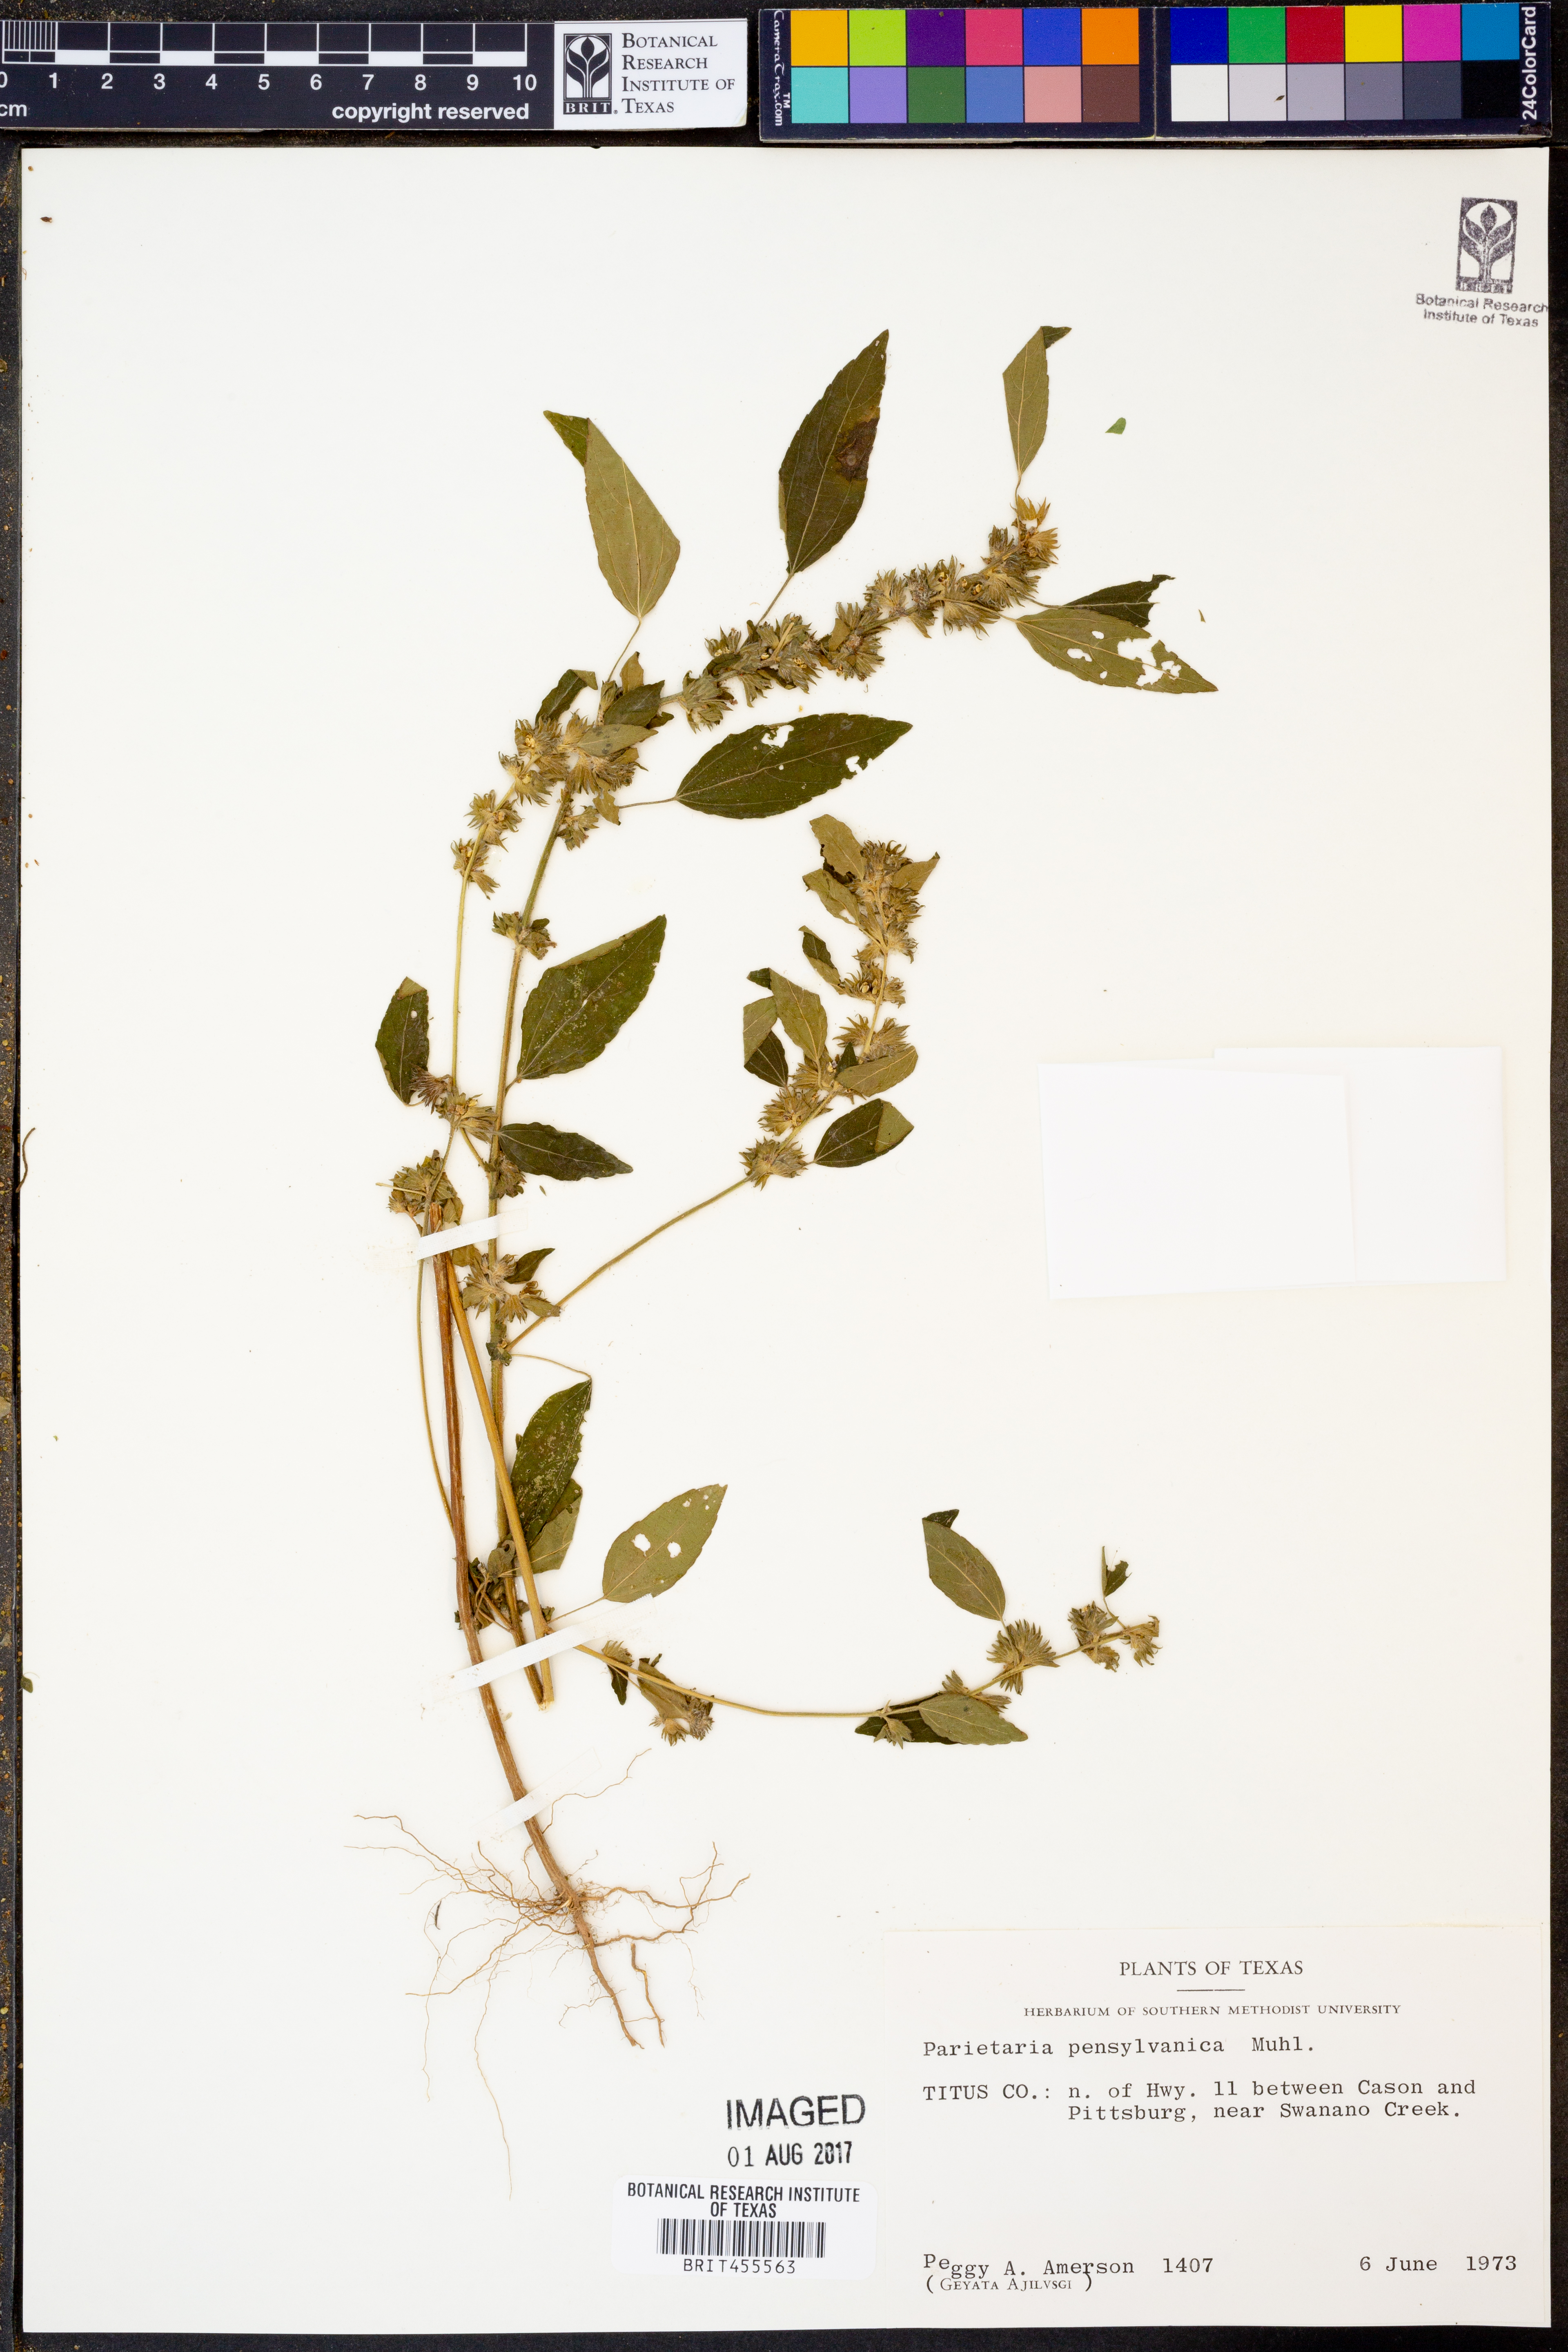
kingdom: Plantae
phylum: Tracheophyta
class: Magnoliopsida
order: Rosales
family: Urticaceae
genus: Parietaria
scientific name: Parietaria pensylvanica
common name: Pennsylvania pellitory
